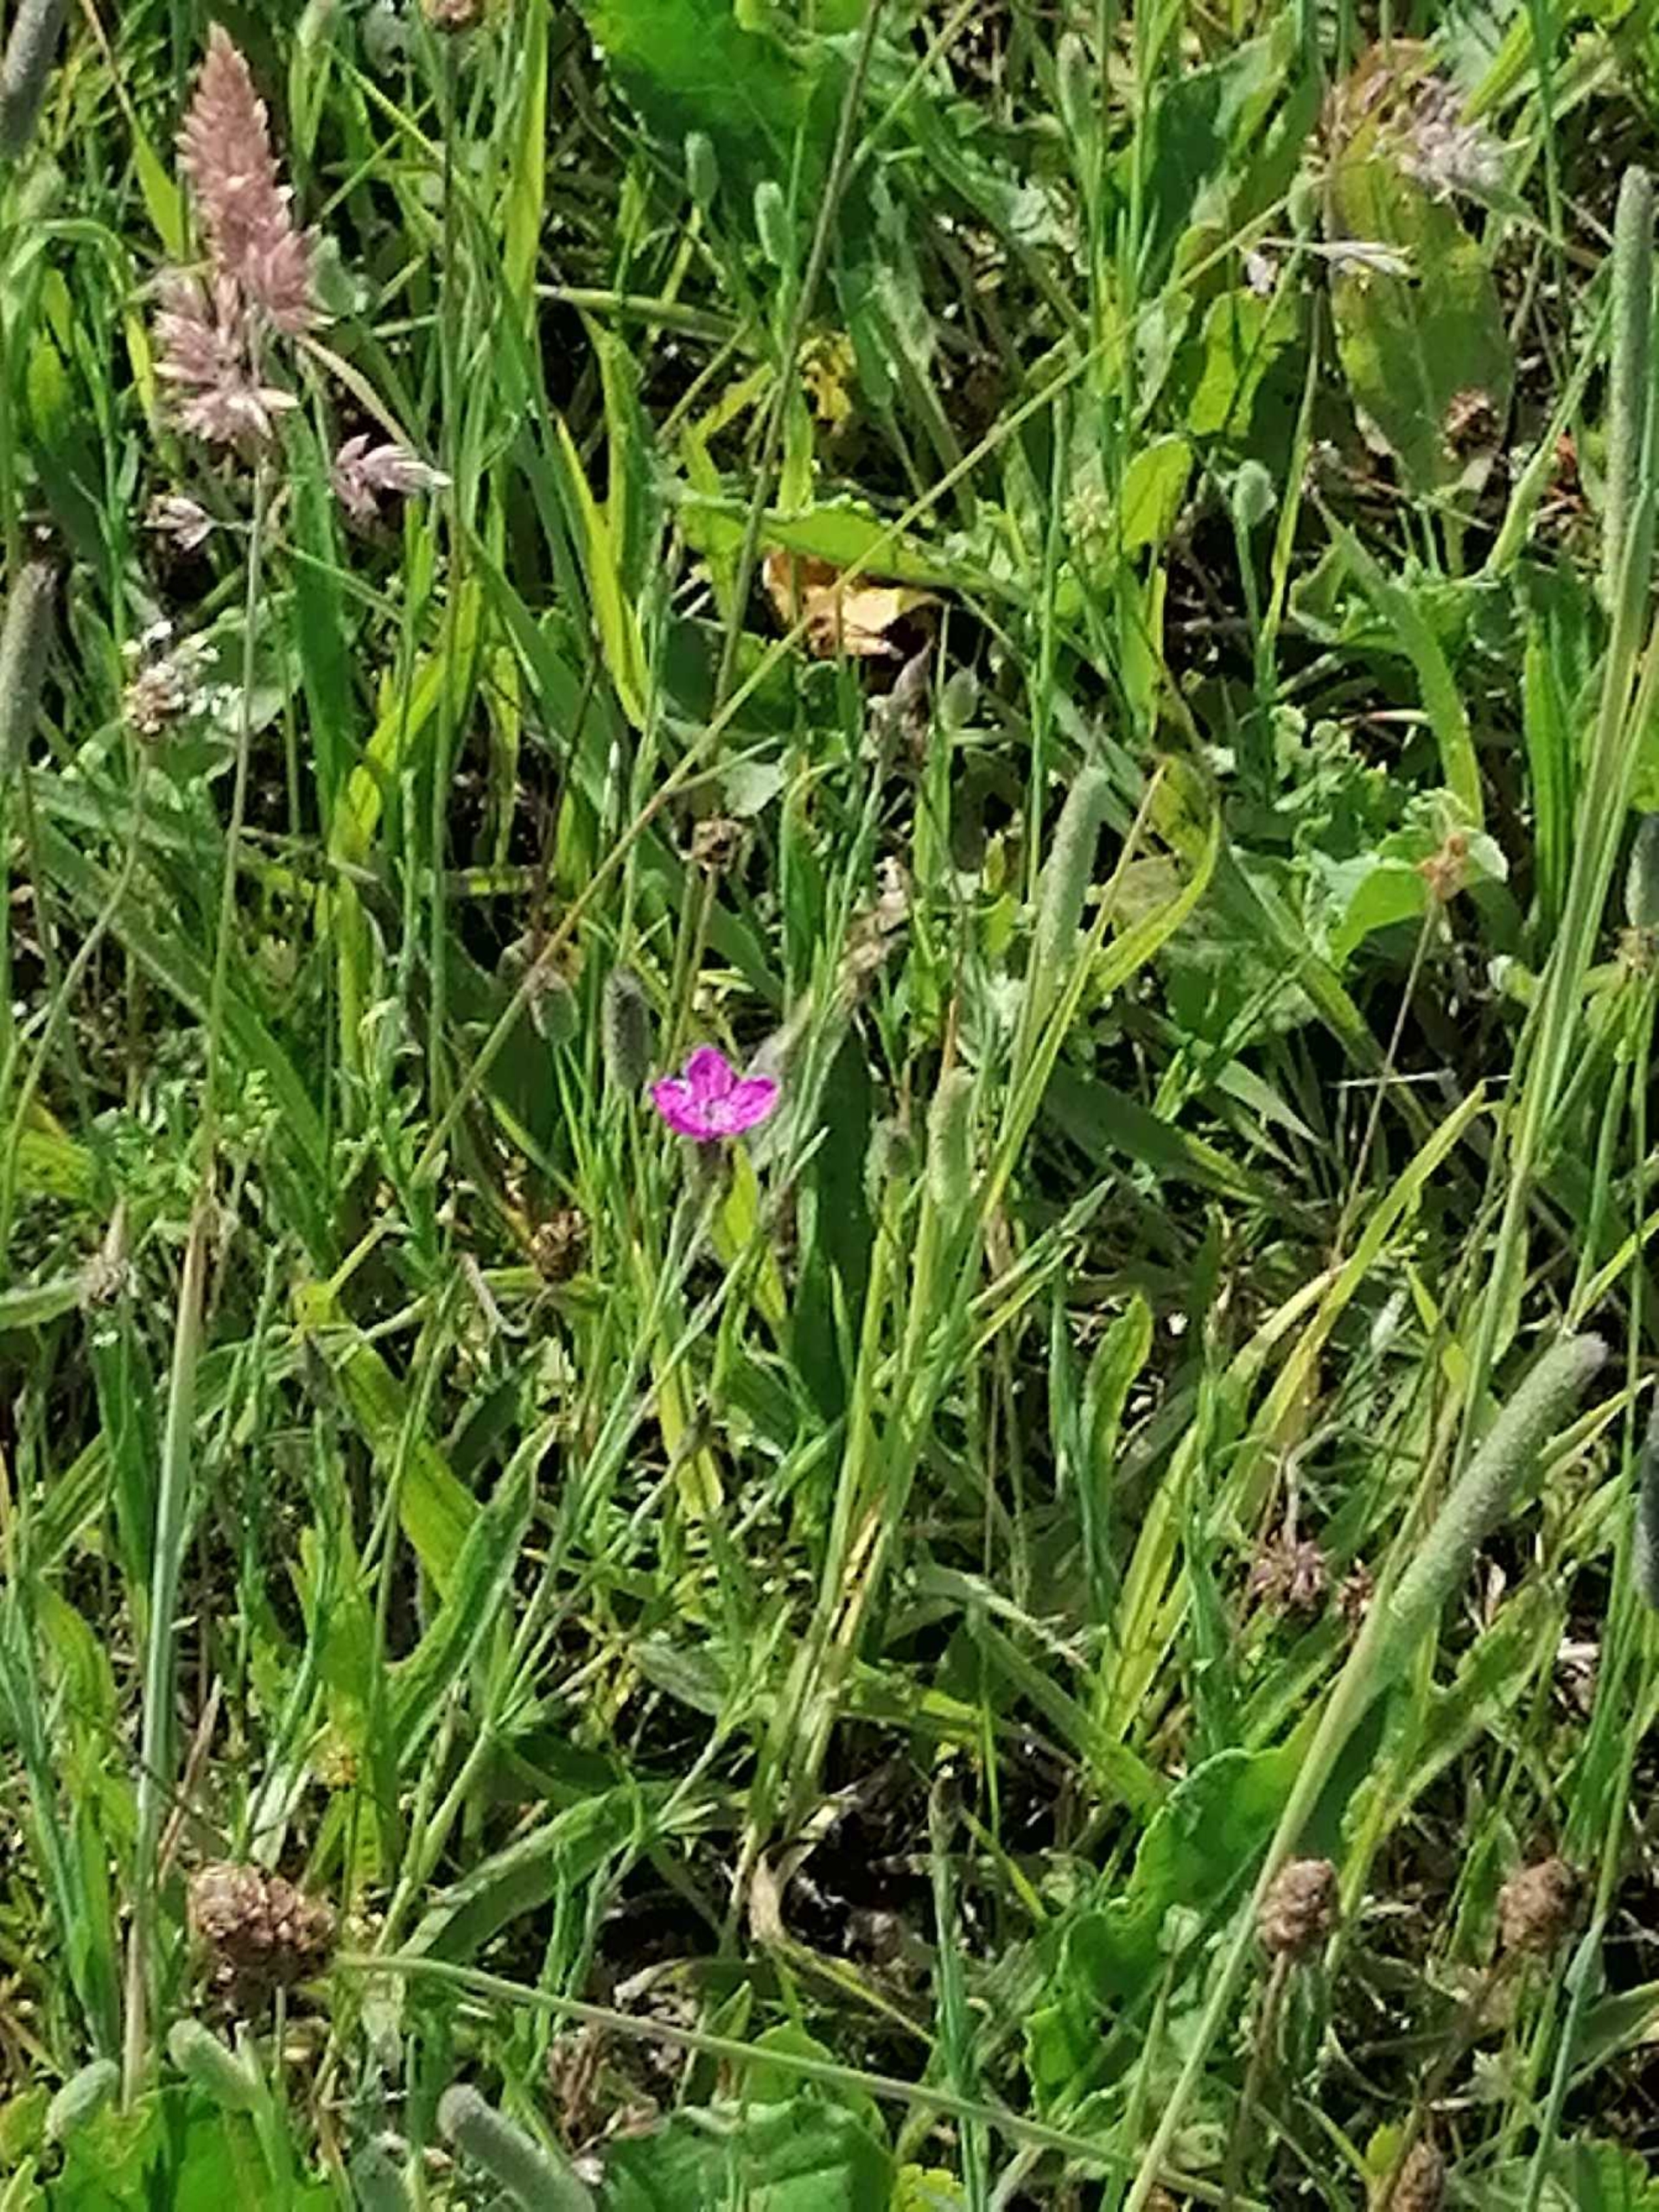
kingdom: Plantae
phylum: Tracheophyta
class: Magnoliopsida
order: Caryophyllales
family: Caryophyllaceae
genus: Dianthus
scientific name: Dianthus deltoides
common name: Bakke-nellike
